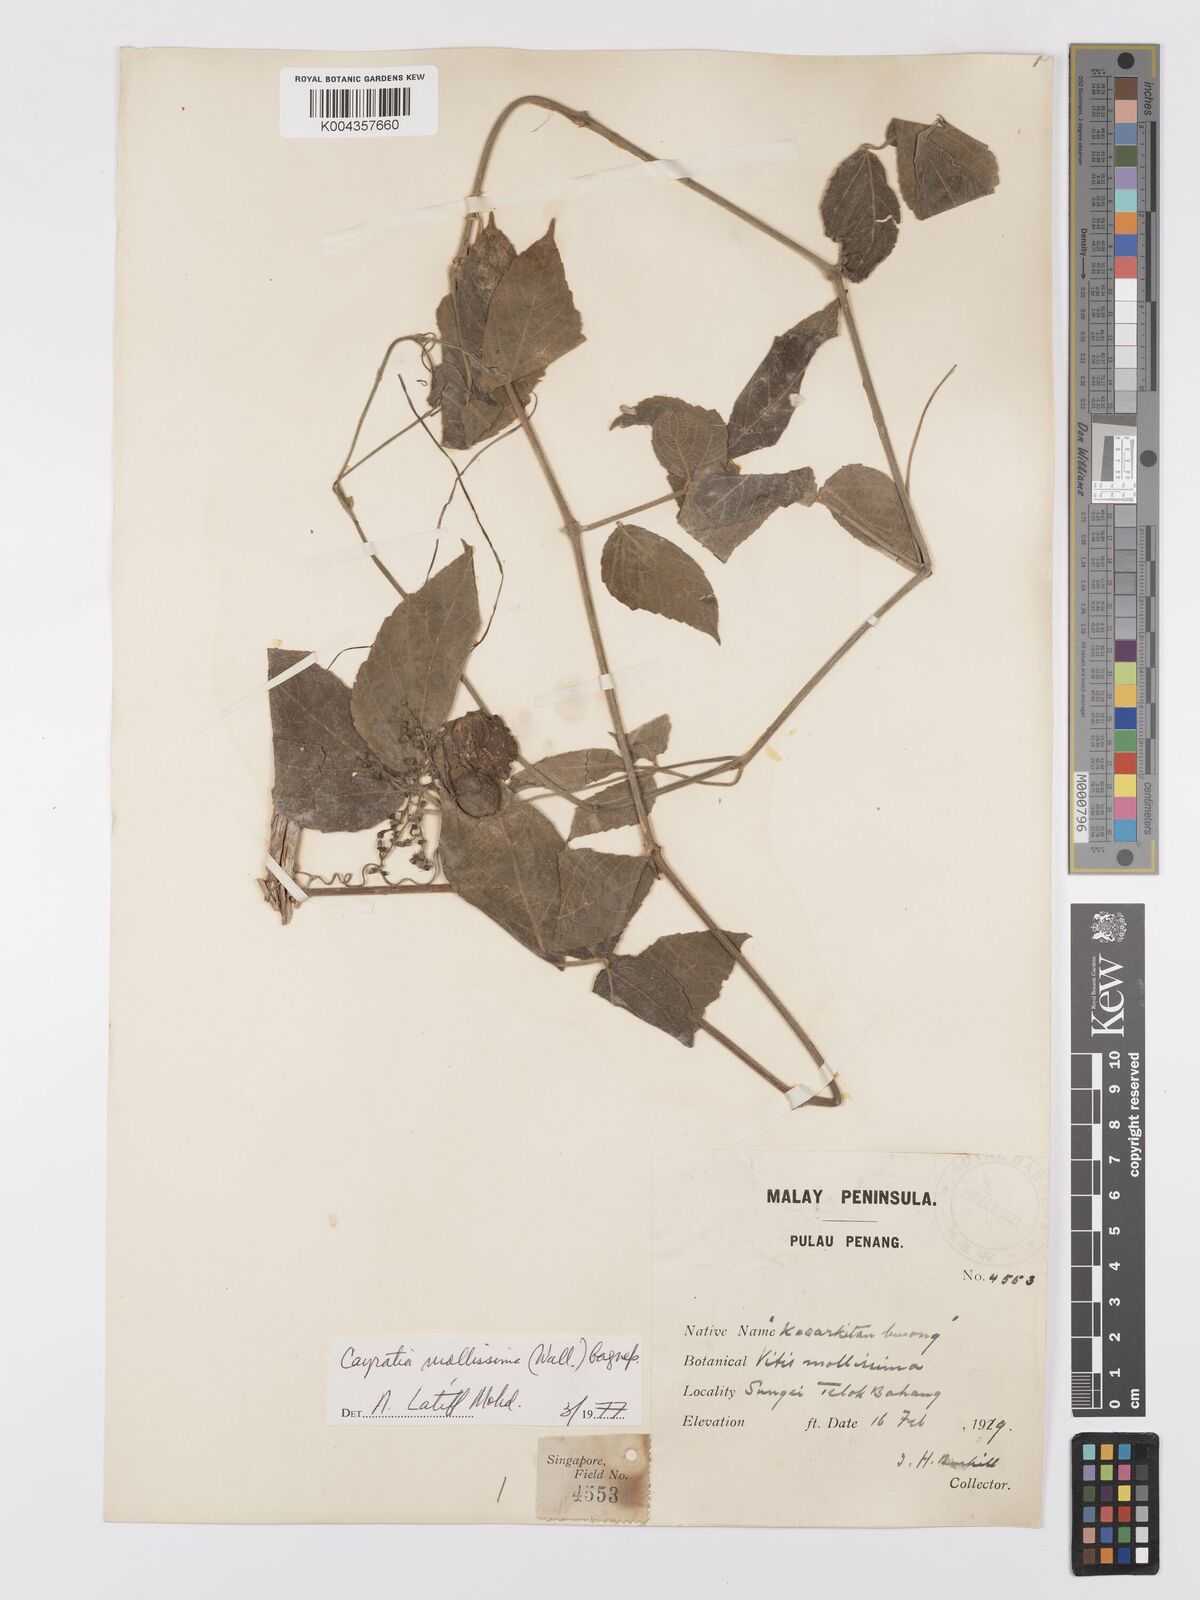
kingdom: Plantae
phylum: Tracheophyta
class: Magnoliopsida
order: Vitales
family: Vitaceae
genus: Cayratia
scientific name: Cayratia mollissima
